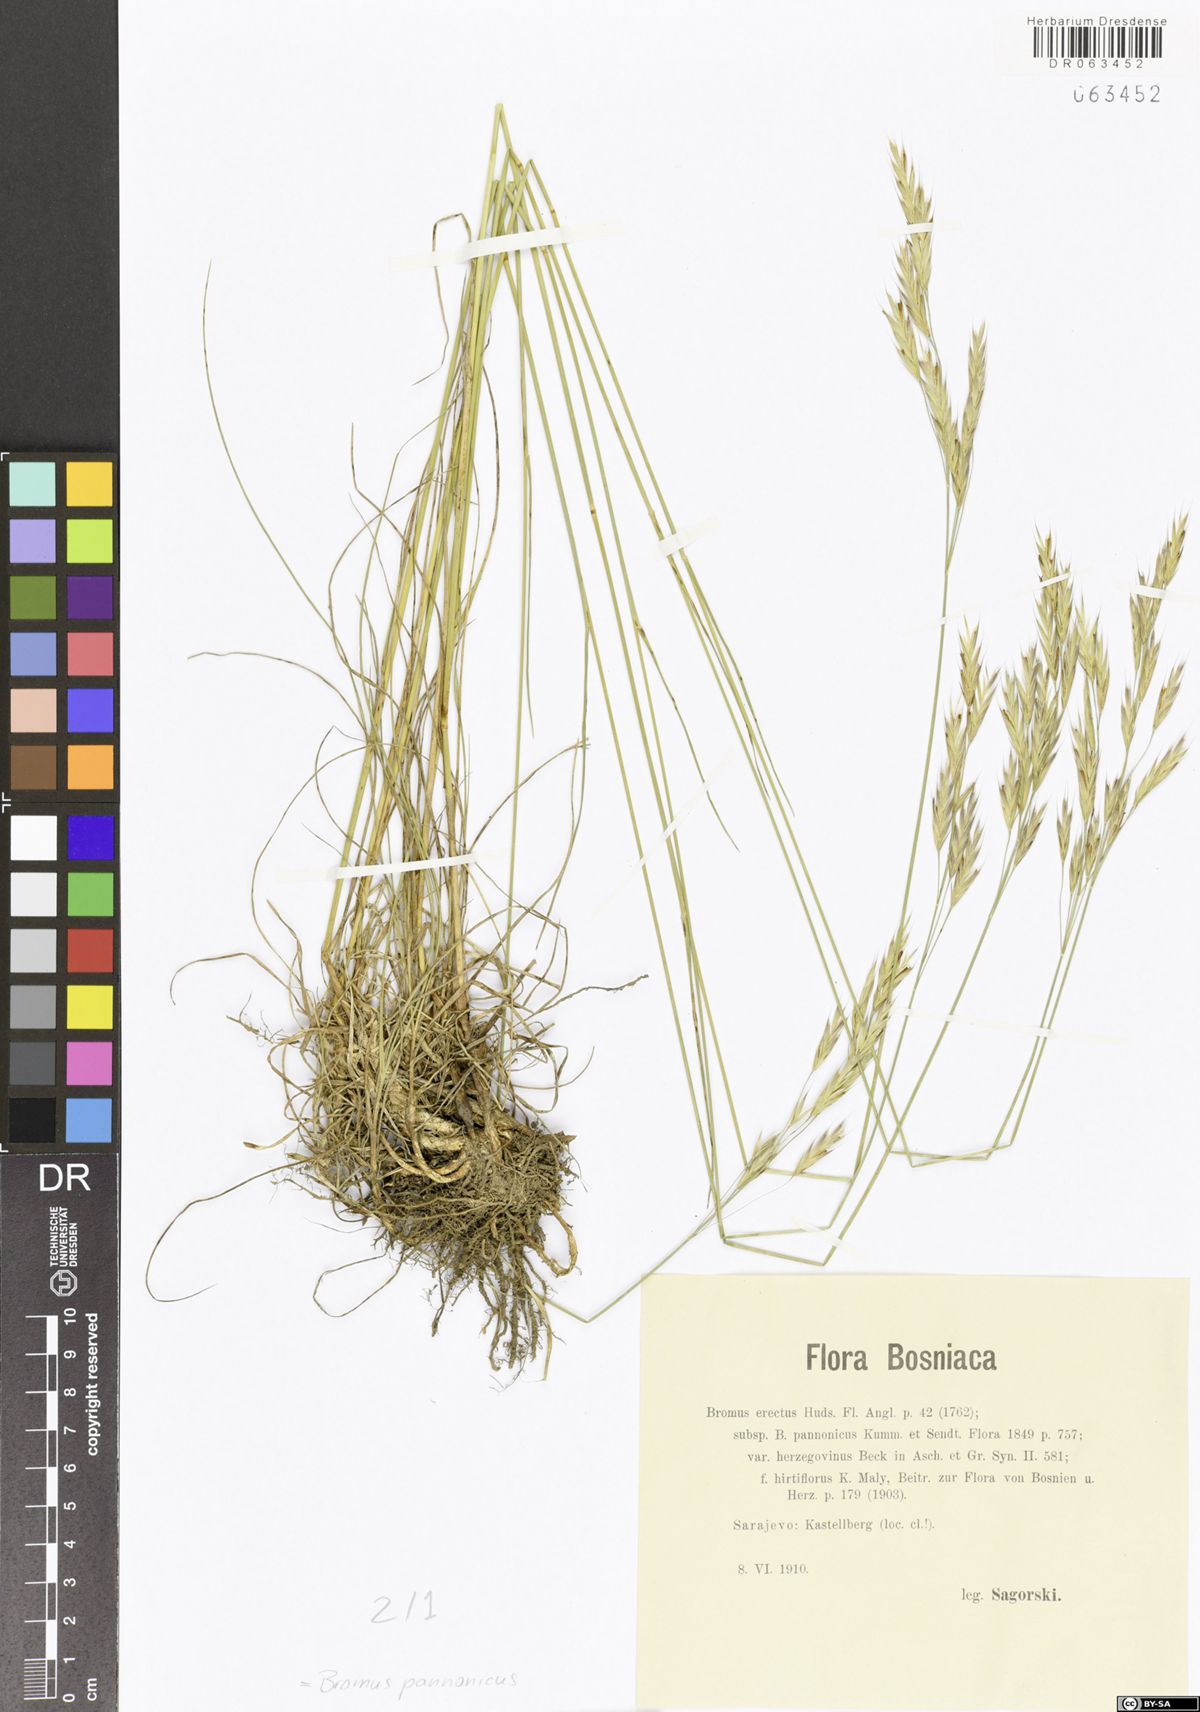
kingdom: Plantae
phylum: Tracheophyta
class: Liliopsida
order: Poales
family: Poaceae
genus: Bromus
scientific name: Bromus pannonicus
